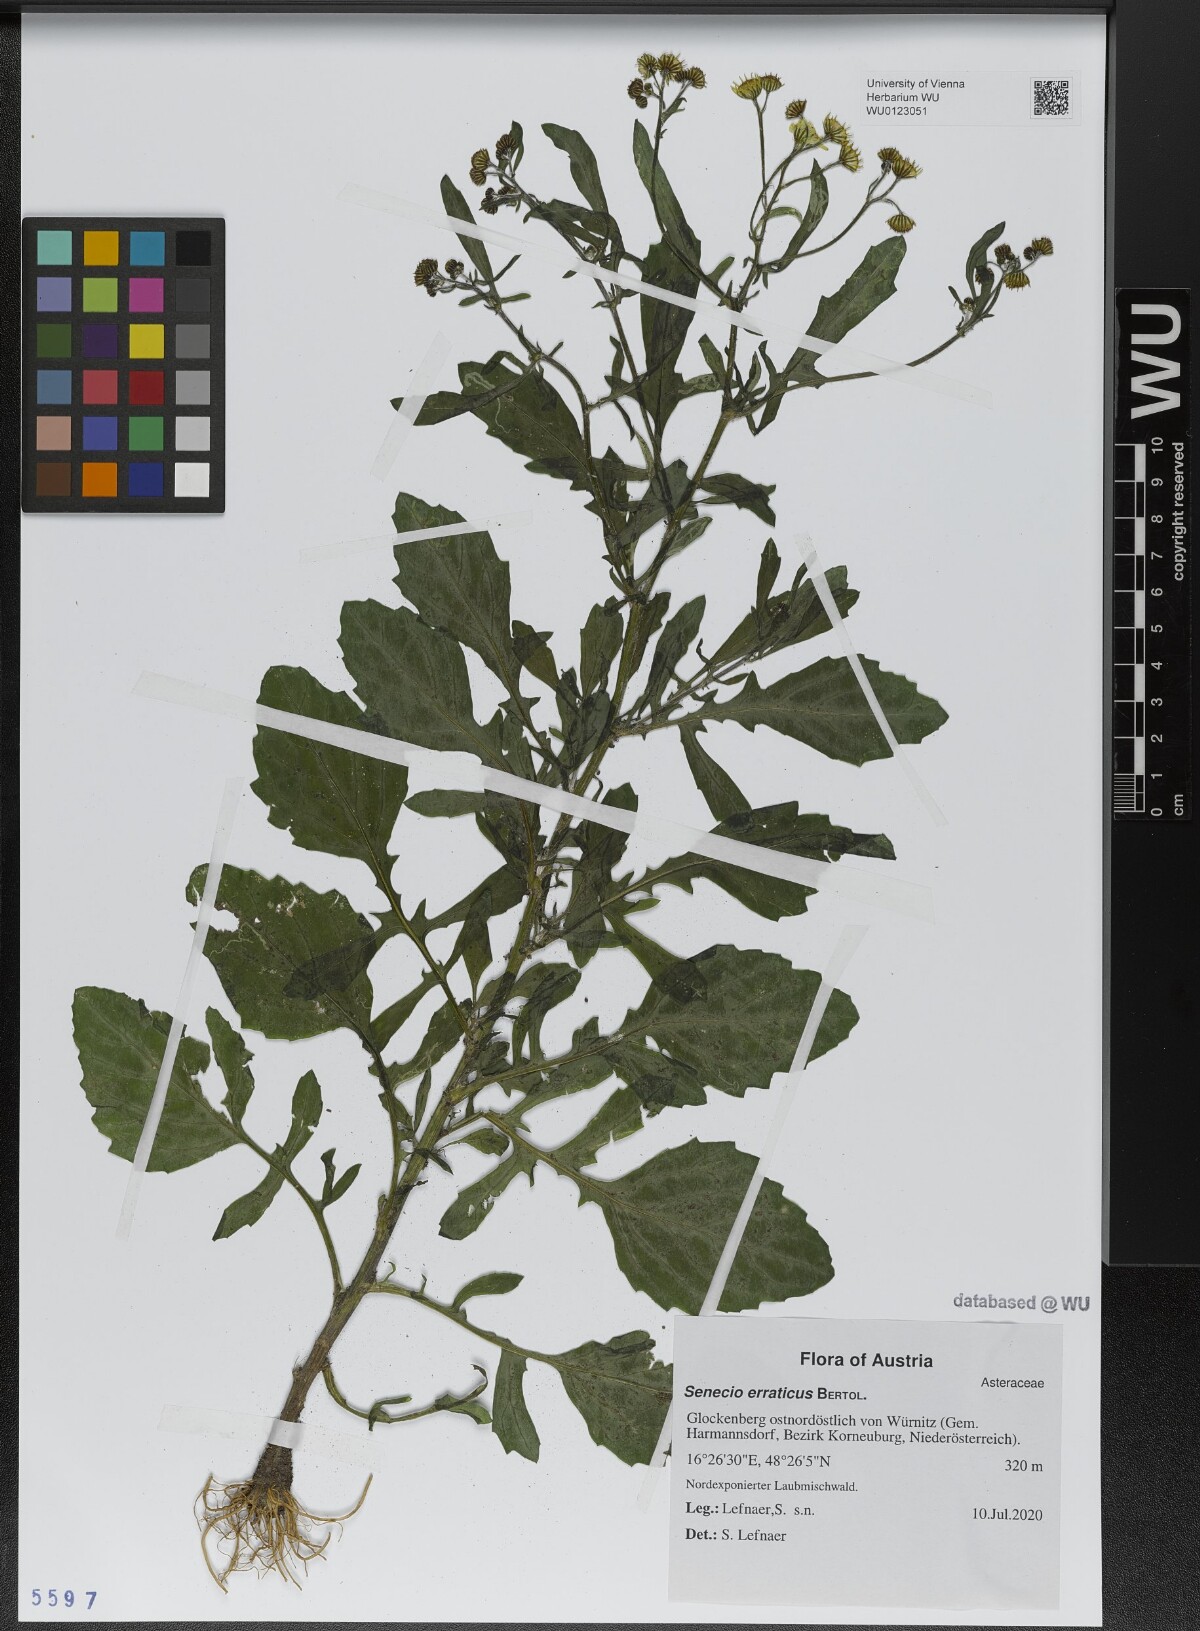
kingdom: Plantae
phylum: Tracheophyta
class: Magnoliopsida
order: Asterales
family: Asteraceae
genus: Jacobaea
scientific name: Jacobaea erratica
